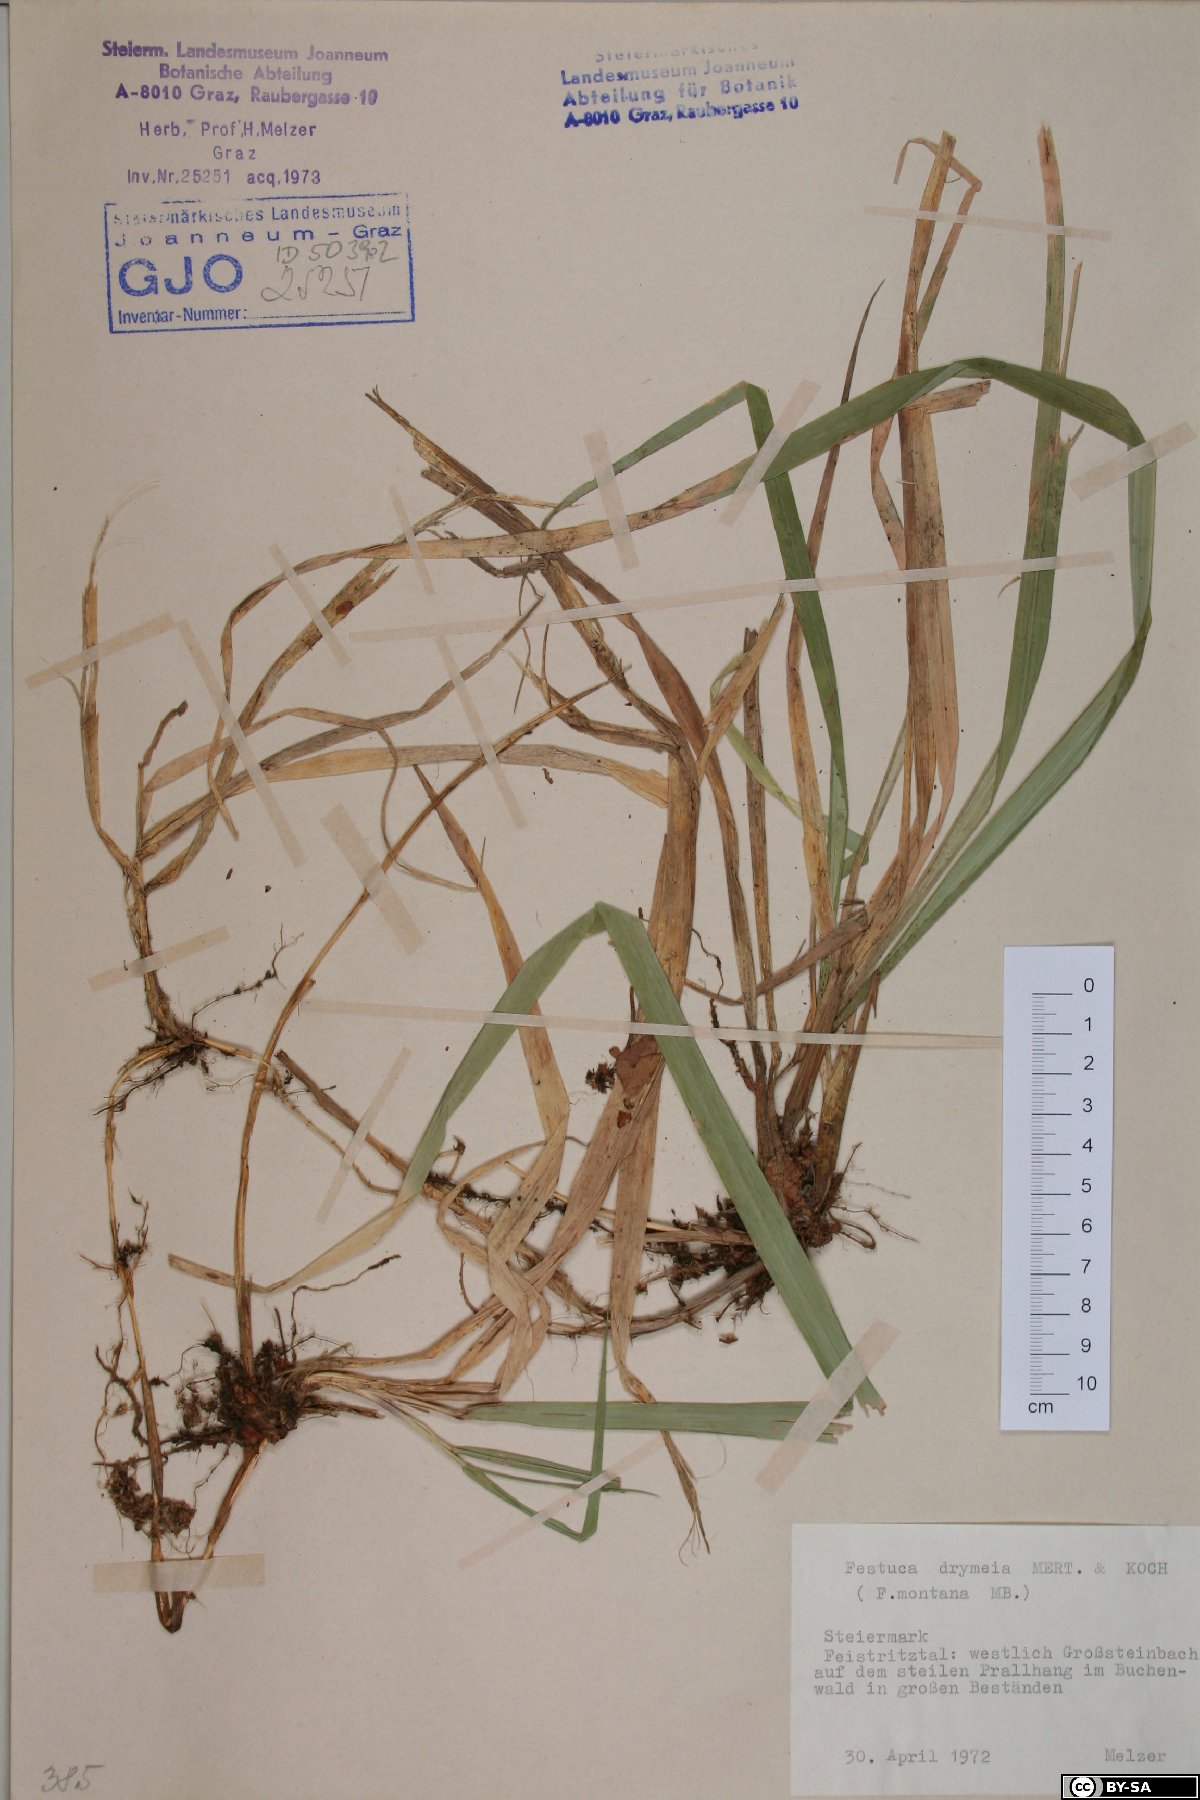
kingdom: Plantae
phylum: Tracheophyta
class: Liliopsida
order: Poales
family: Poaceae
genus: Festuca
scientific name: Festuca drymeja
